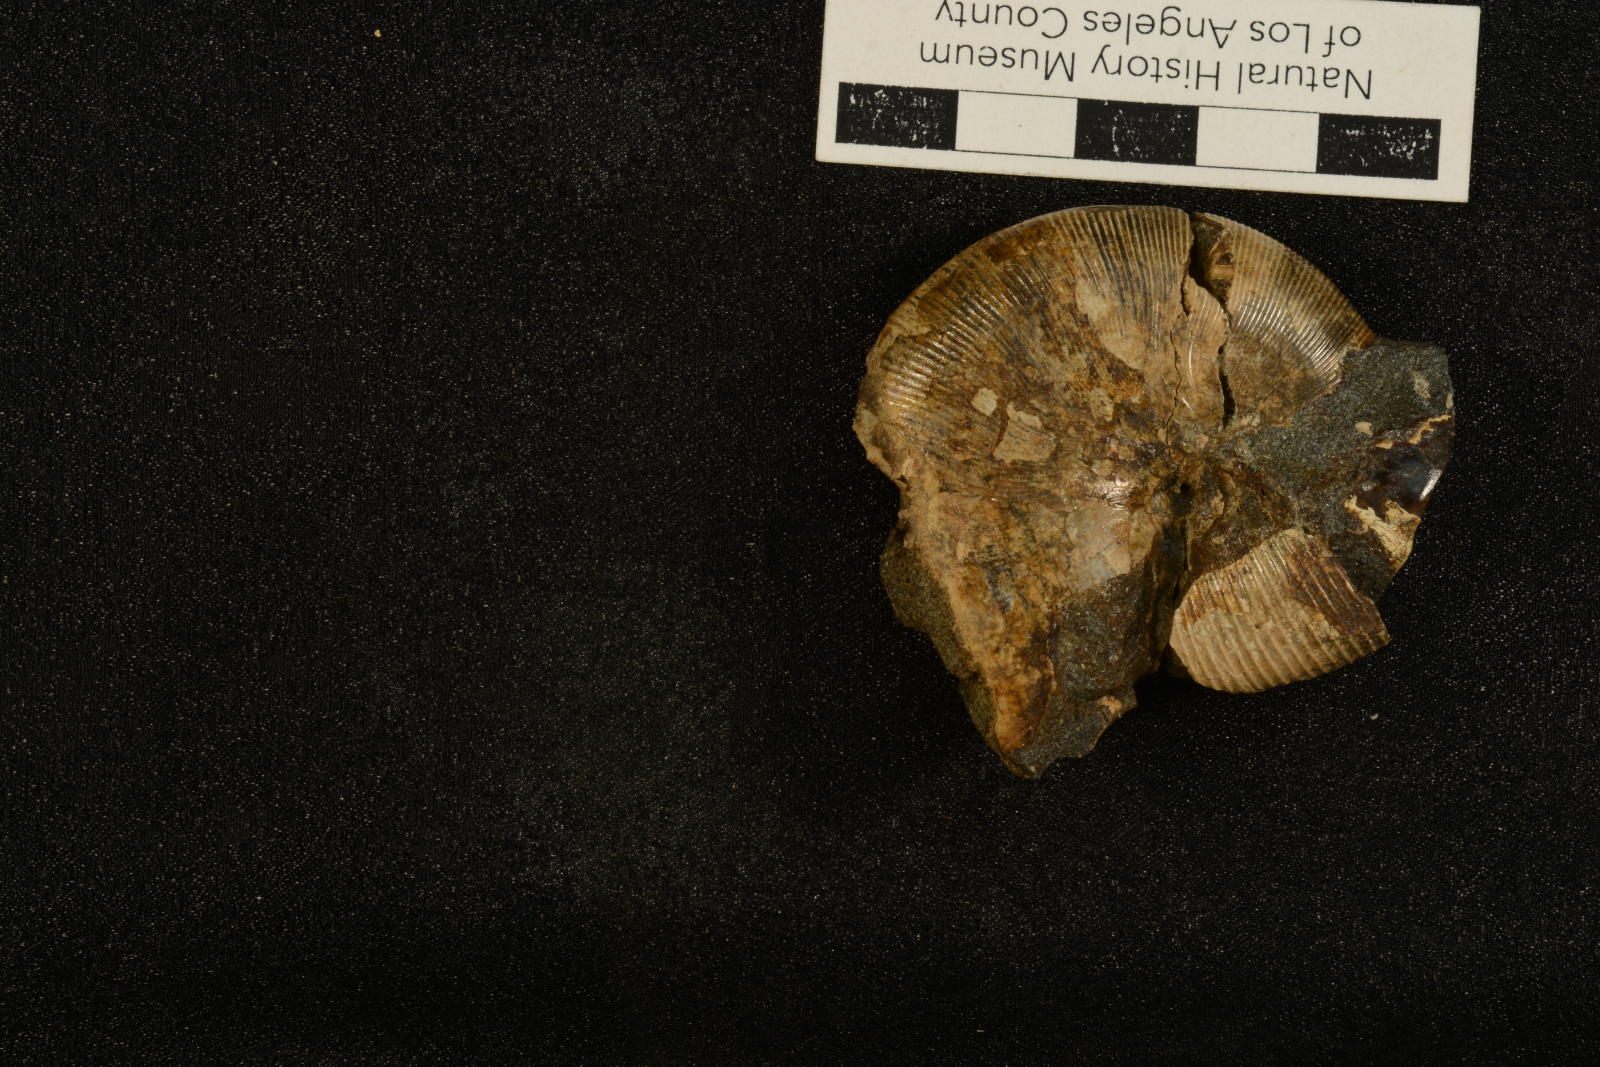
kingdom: Animalia
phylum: Mollusca
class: Cephalopoda
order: Phylloceratida
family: Phylloceratidae
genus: Neophylloceras
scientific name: Neophylloceras hetonaiense
